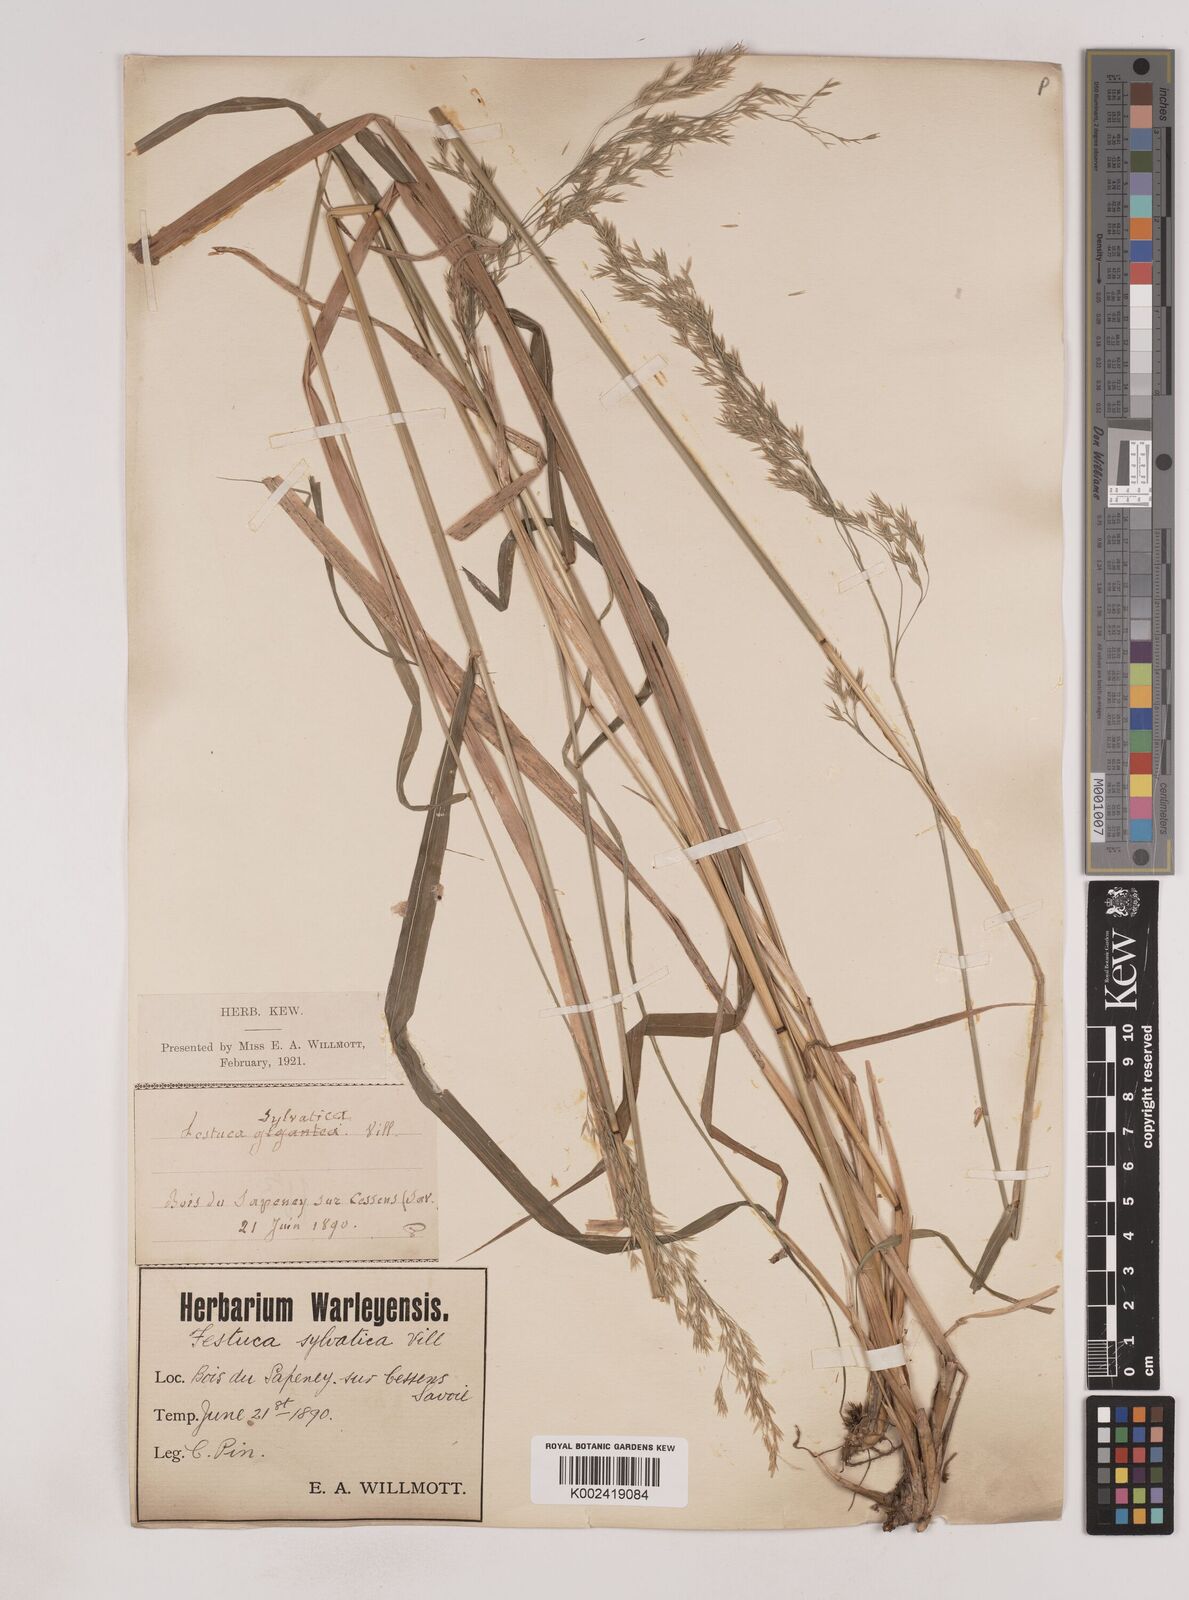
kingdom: Plantae
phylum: Tracheophyta
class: Liliopsida
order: Poales
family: Poaceae
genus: Festuca
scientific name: Festuca drymeja
